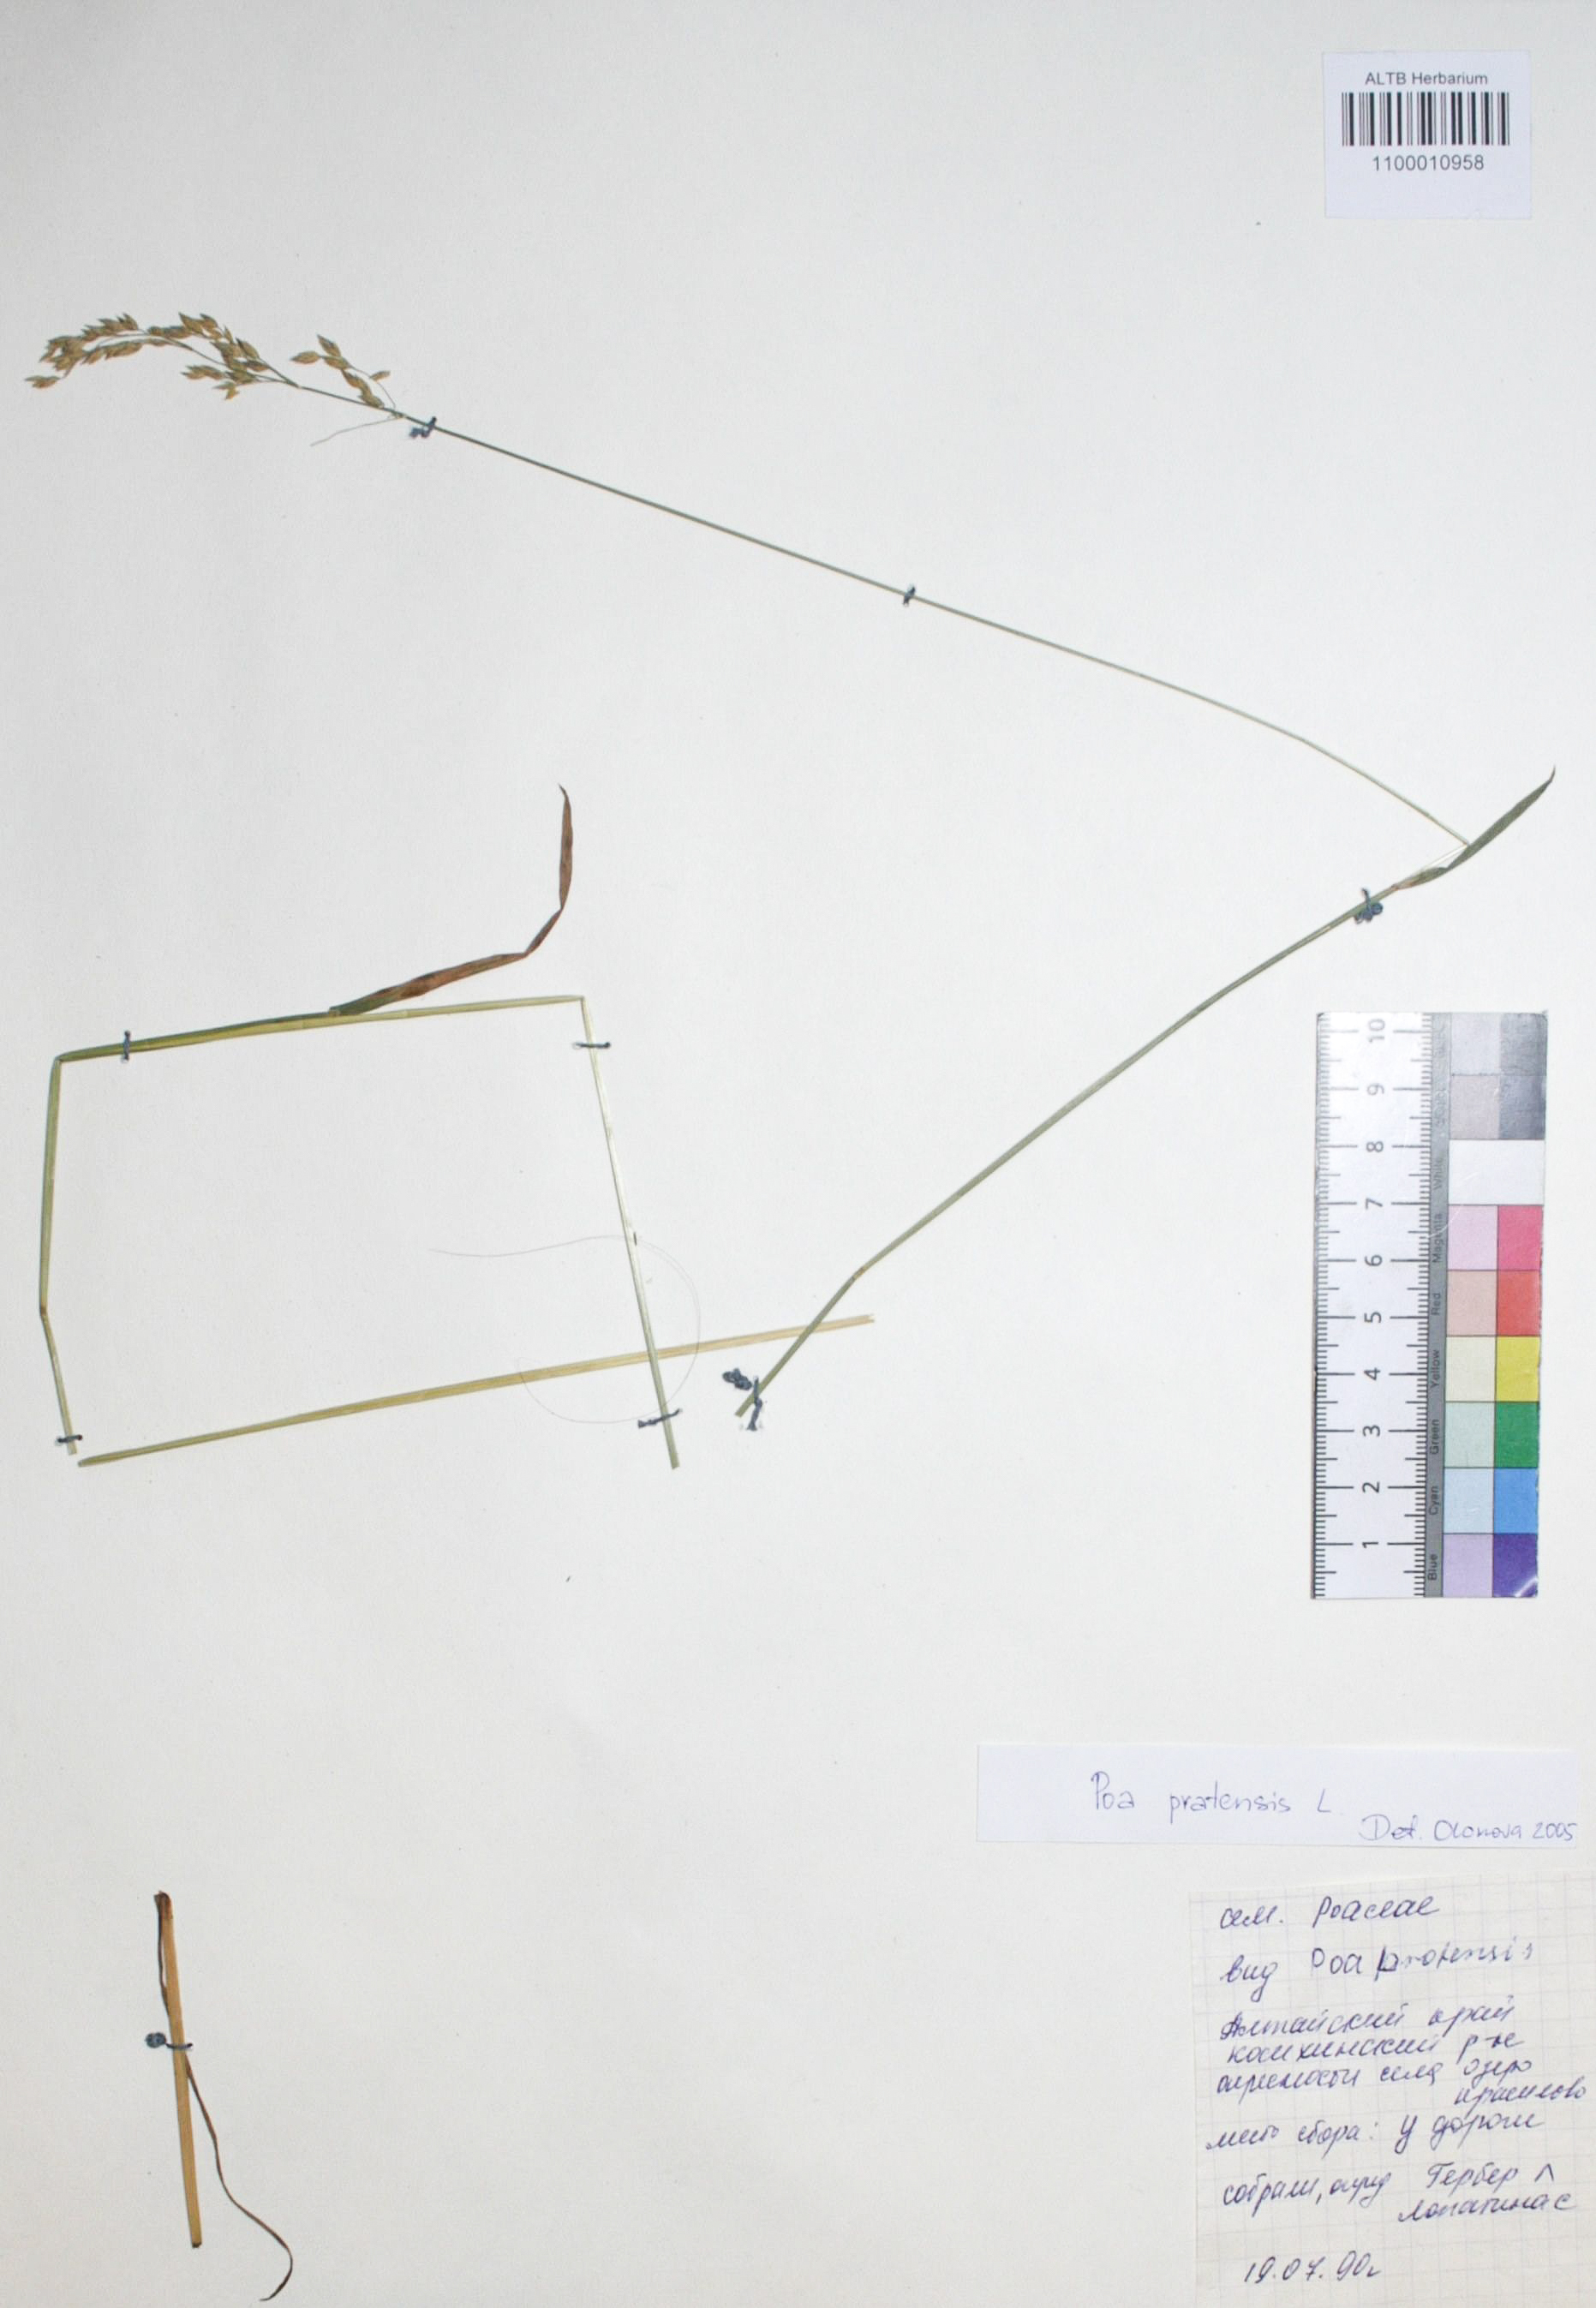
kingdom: Plantae
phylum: Tracheophyta
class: Liliopsida
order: Poales
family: Poaceae
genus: Poa
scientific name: Poa pratensis
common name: Kentucky bluegrass
